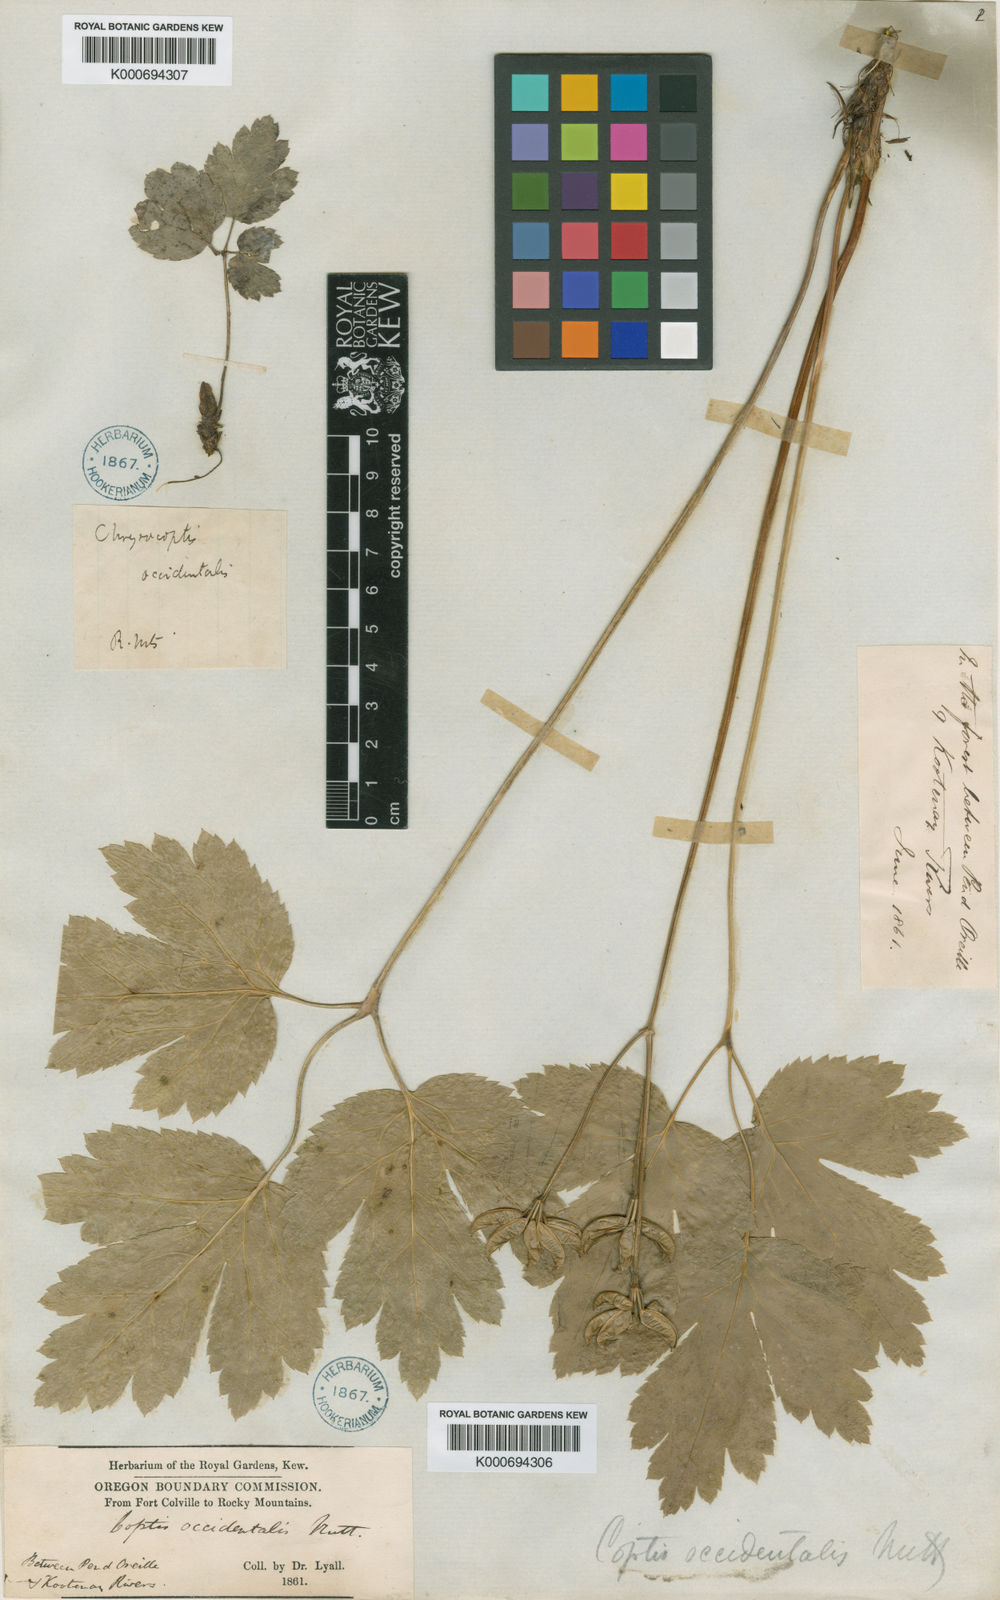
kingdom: Plantae
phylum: Tracheophyta
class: Magnoliopsida
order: Ranunculales
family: Ranunculaceae
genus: Coptis
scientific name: Coptis occidentalis
